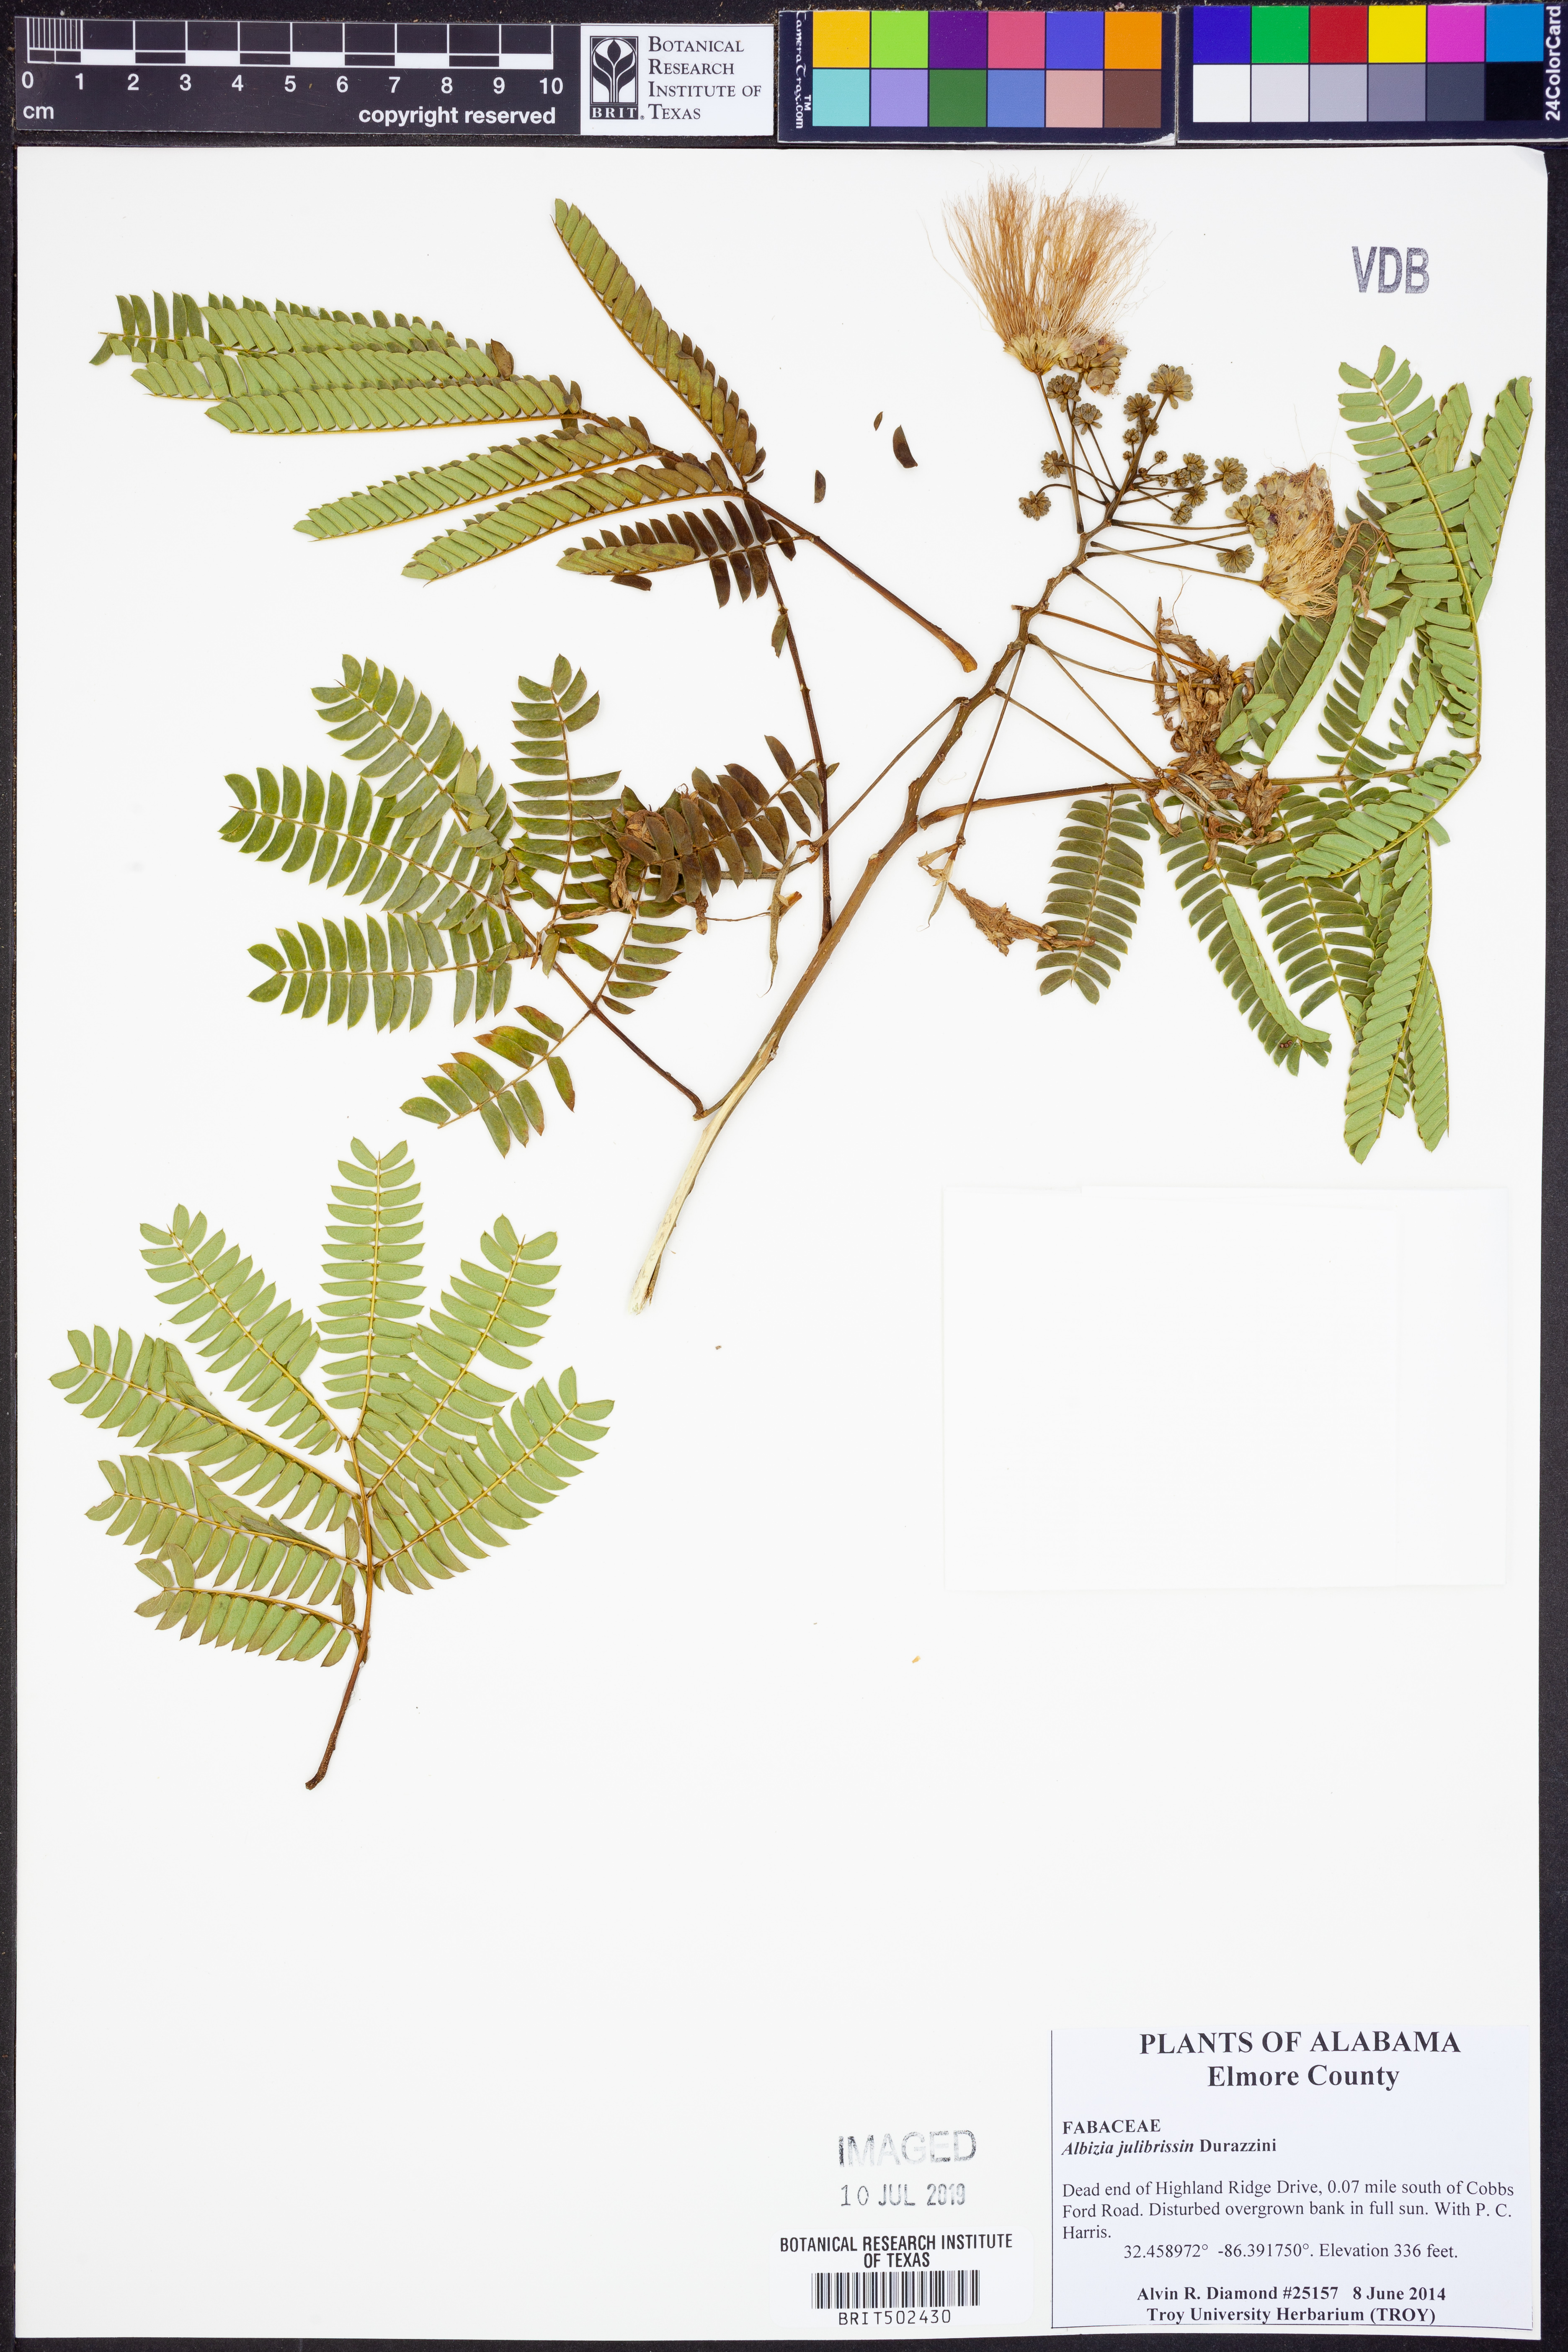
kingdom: Plantae
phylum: Tracheophyta
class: Magnoliopsida
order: Fabales
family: Fabaceae
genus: Albizia
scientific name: Albizia julibrissin
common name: Silktree
